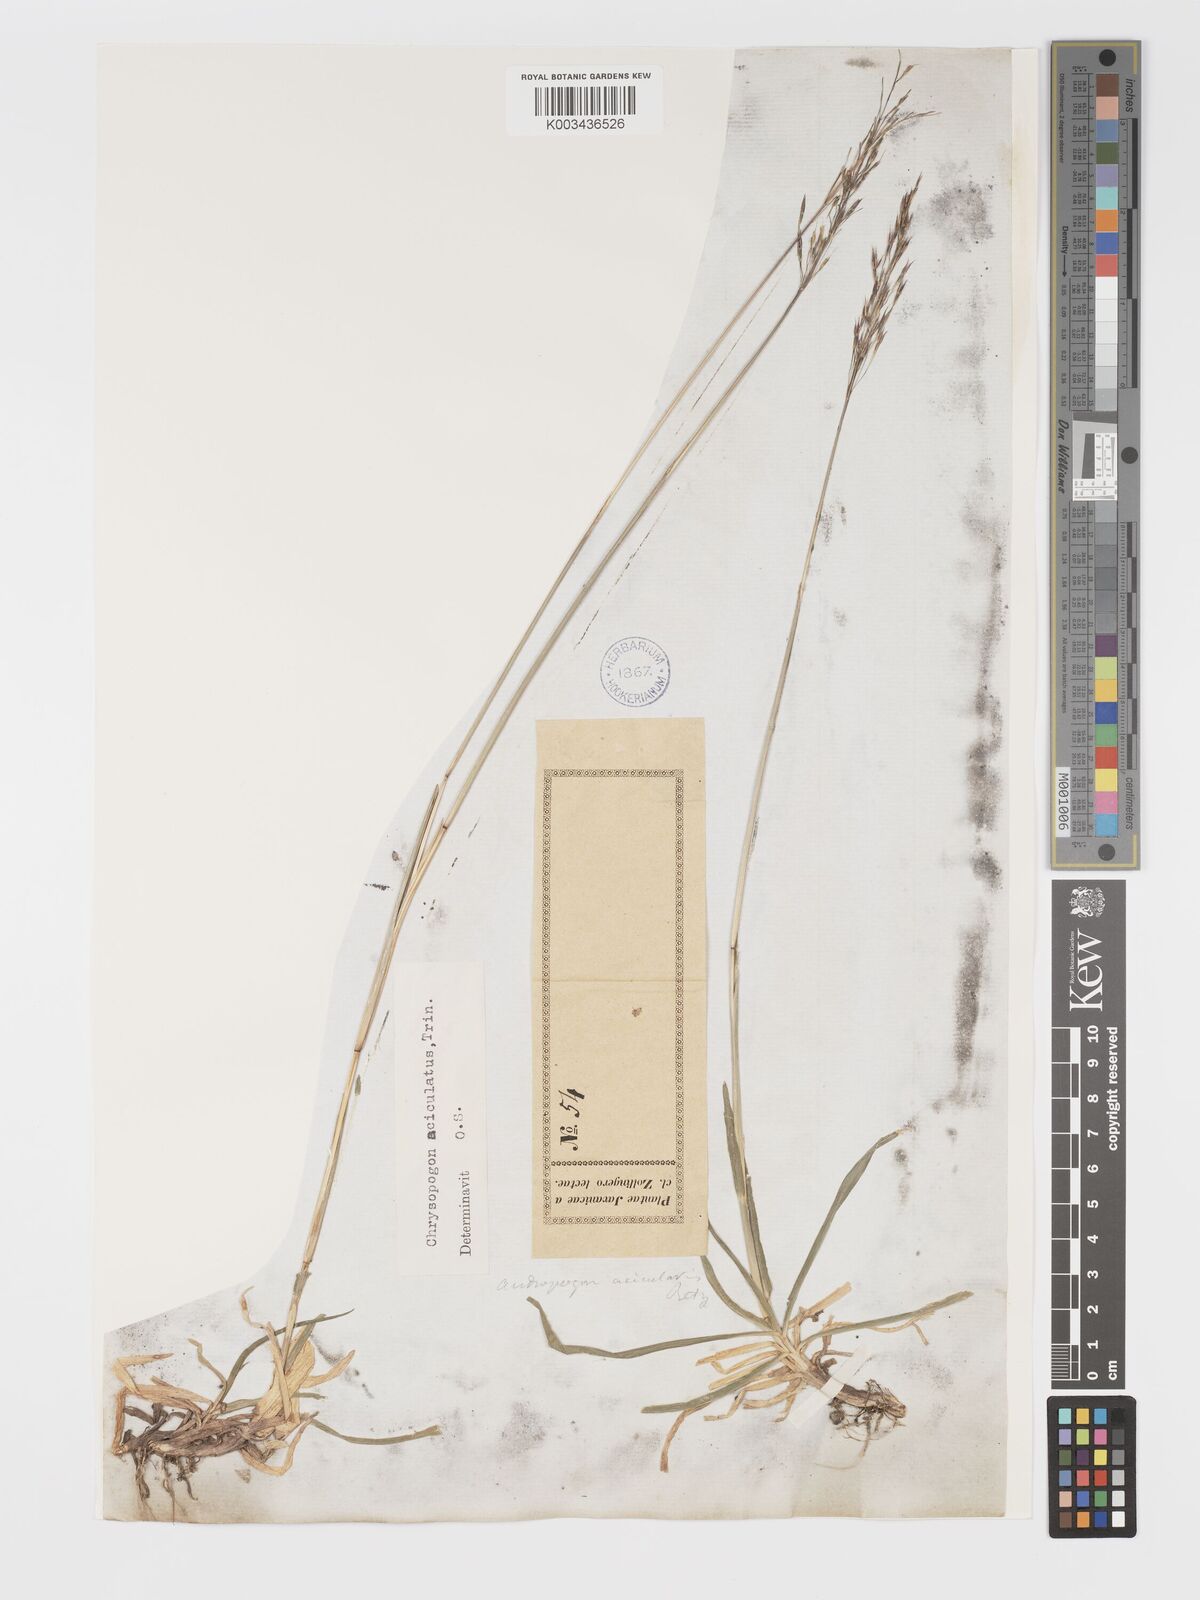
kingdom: Plantae
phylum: Tracheophyta
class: Liliopsida
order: Poales
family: Poaceae
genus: Chrysopogon
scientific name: Chrysopogon aciculatus
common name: Pilipiliula
